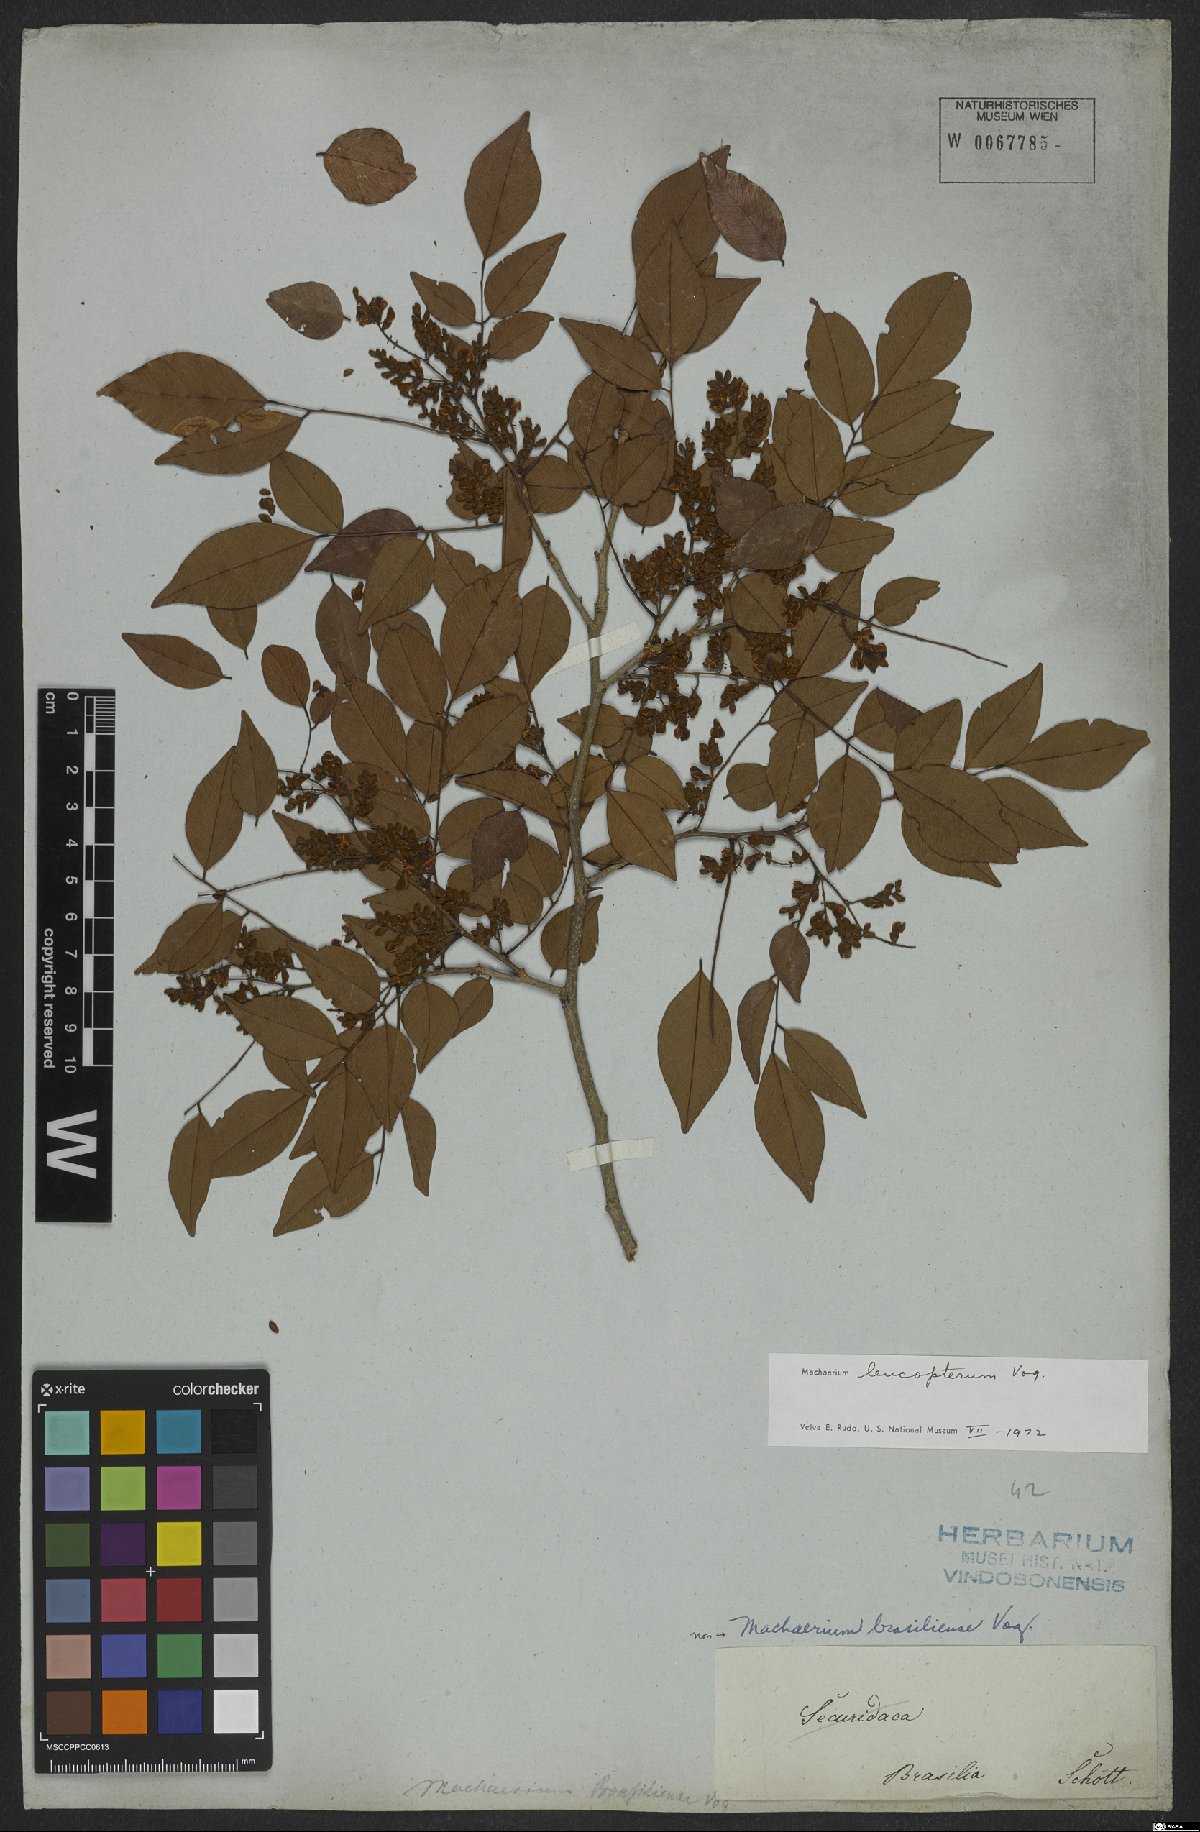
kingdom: Plantae
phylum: Tracheophyta
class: Magnoliopsida
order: Fabales
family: Fabaceae
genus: Machaerium
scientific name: Machaerium leucopterum
